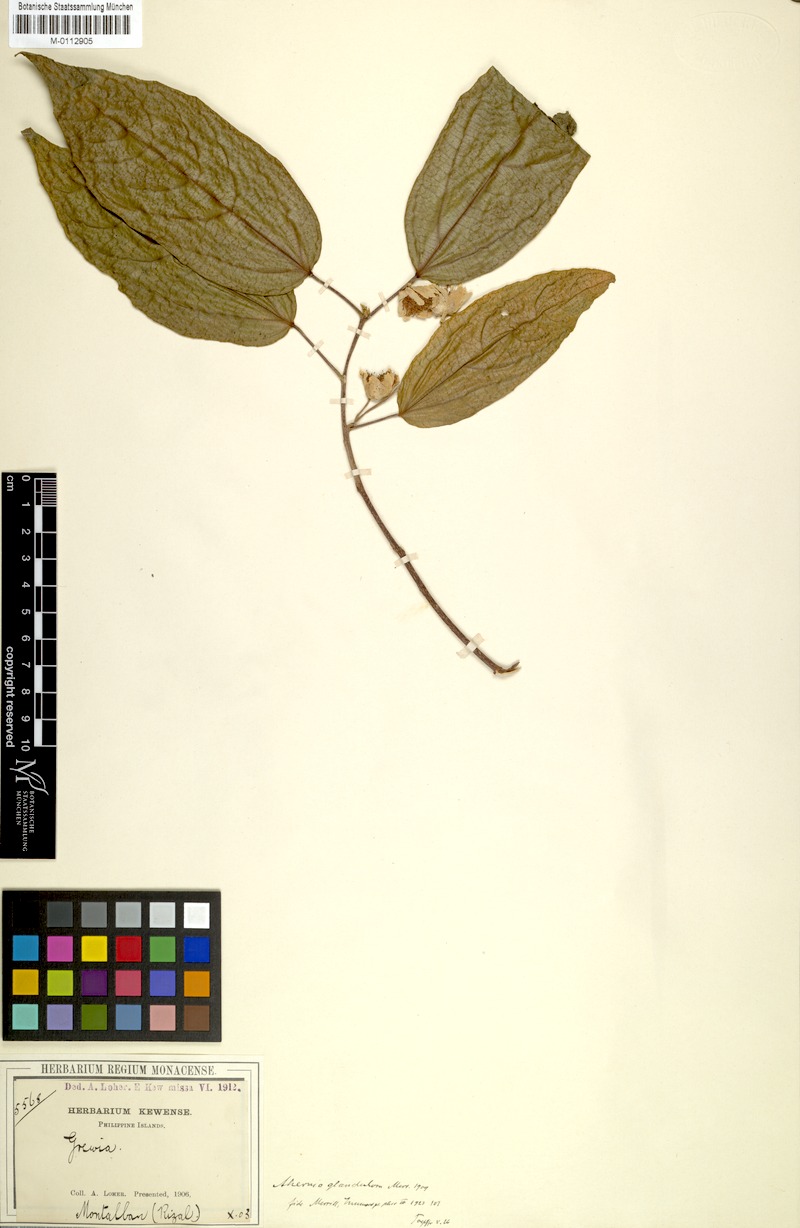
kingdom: Plantae
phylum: Tracheophyta
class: Magnoliopsida
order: Malpighiales
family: Achariaceae
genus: Ahernia
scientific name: Ahernia glandulosa
